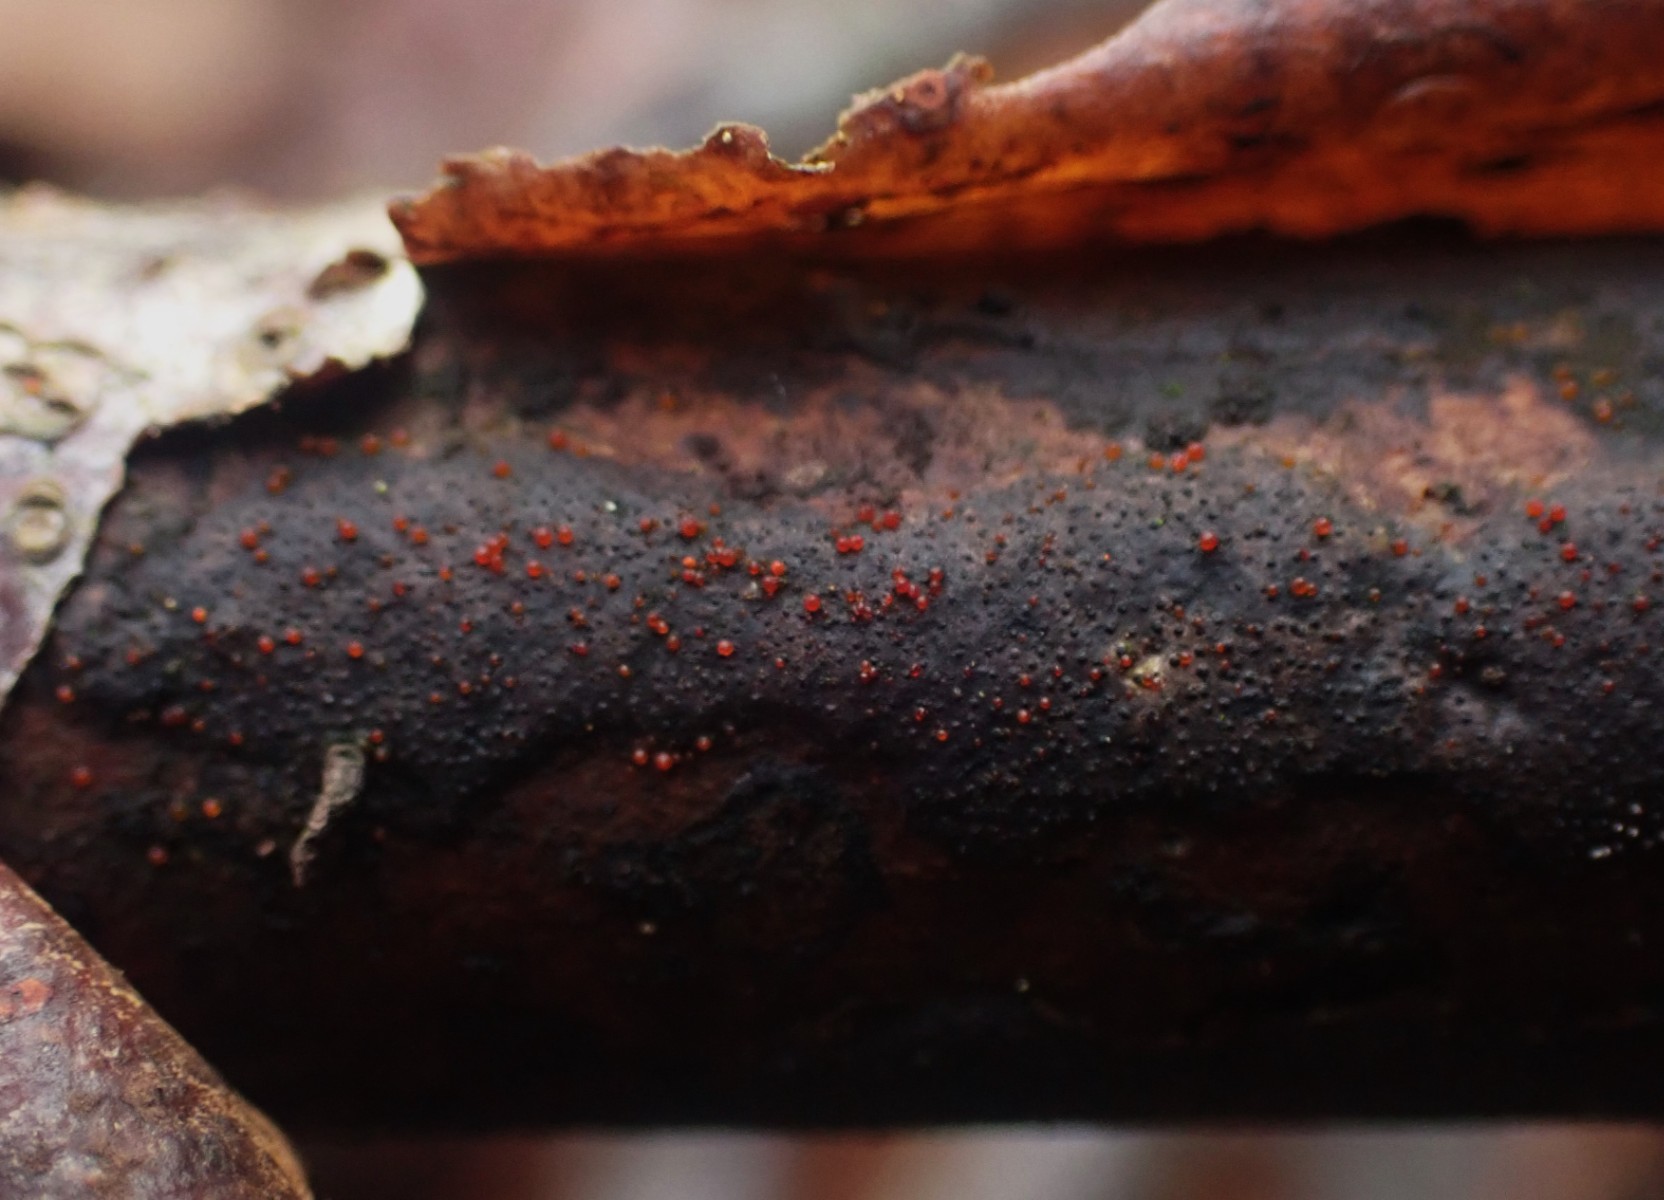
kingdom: Fungi
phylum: Ascomycota
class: Sordariomycetes
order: Hypocreales
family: Nectriaceae
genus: Dialonectria
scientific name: Dialonectria episphaeria
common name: kulskorpe-cinnobersvamp
